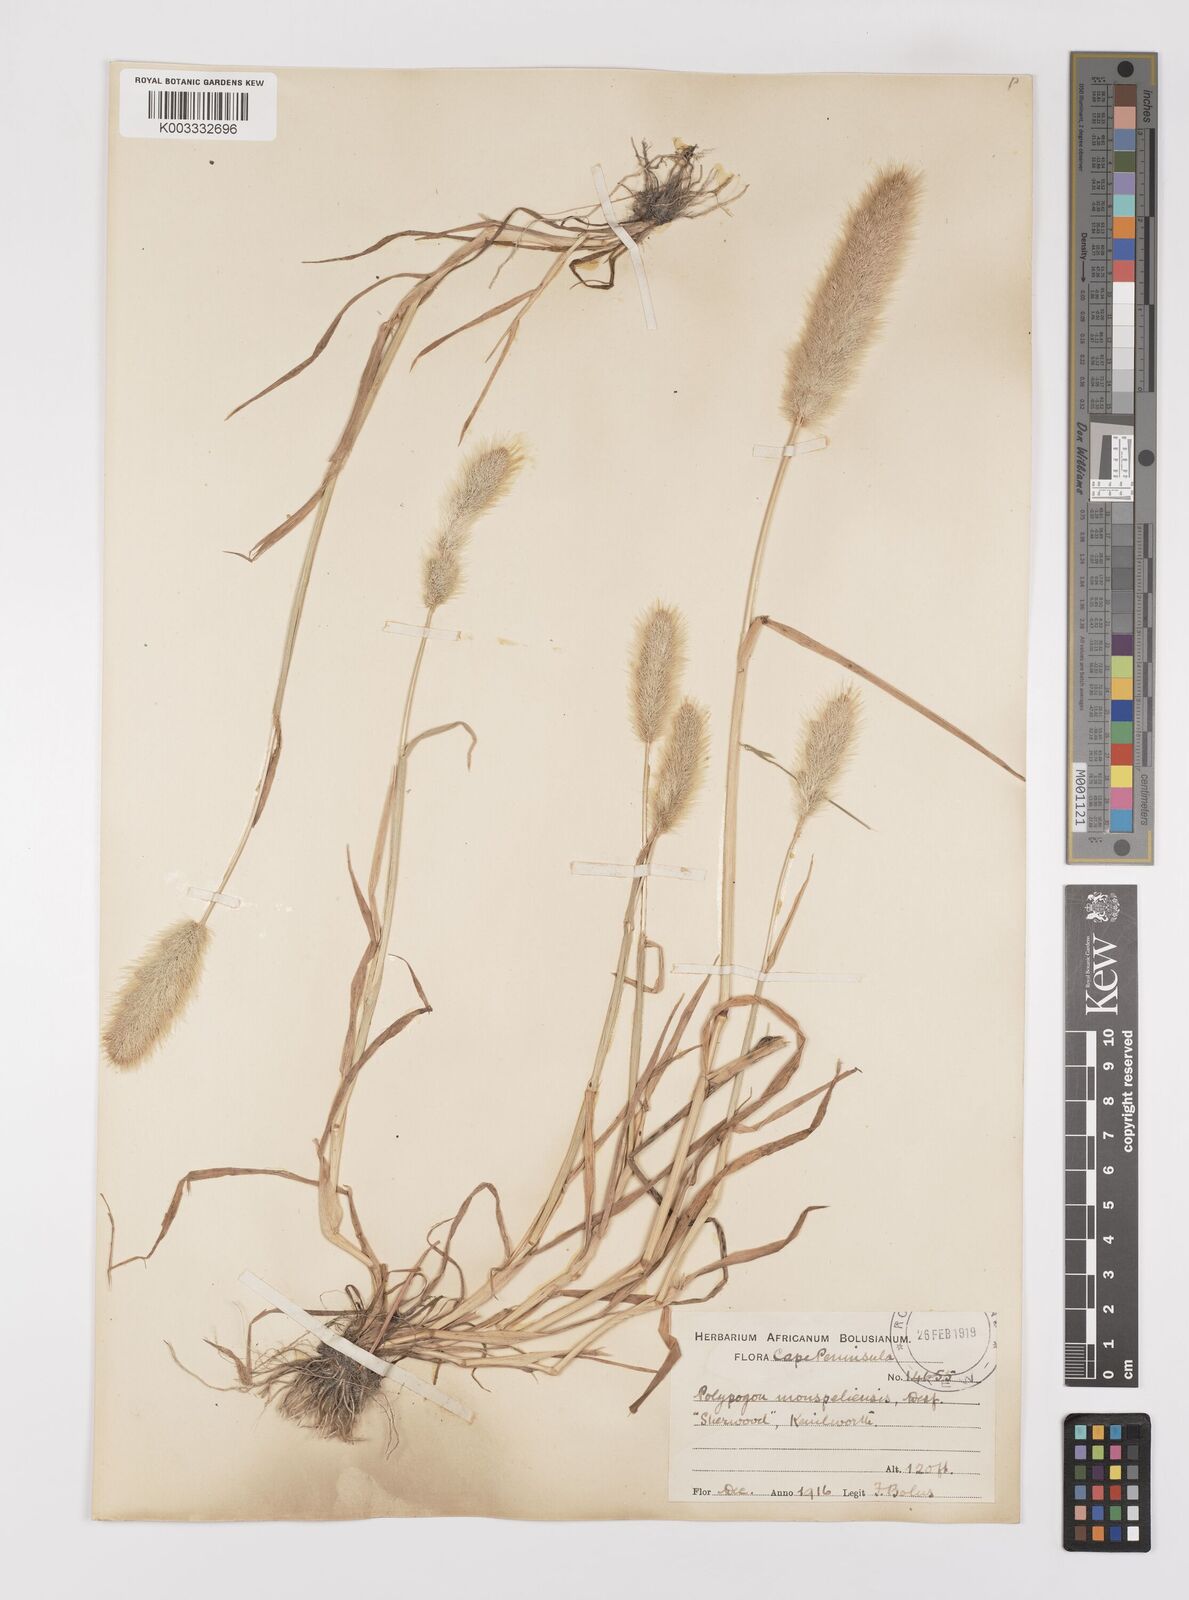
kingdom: Plantae
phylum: Tracheophyta
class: Liliopsida
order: Poales
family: Poaceae
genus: Polypogon
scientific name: Polypogon monspeliensis
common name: Annual rabbitsfoot grass
